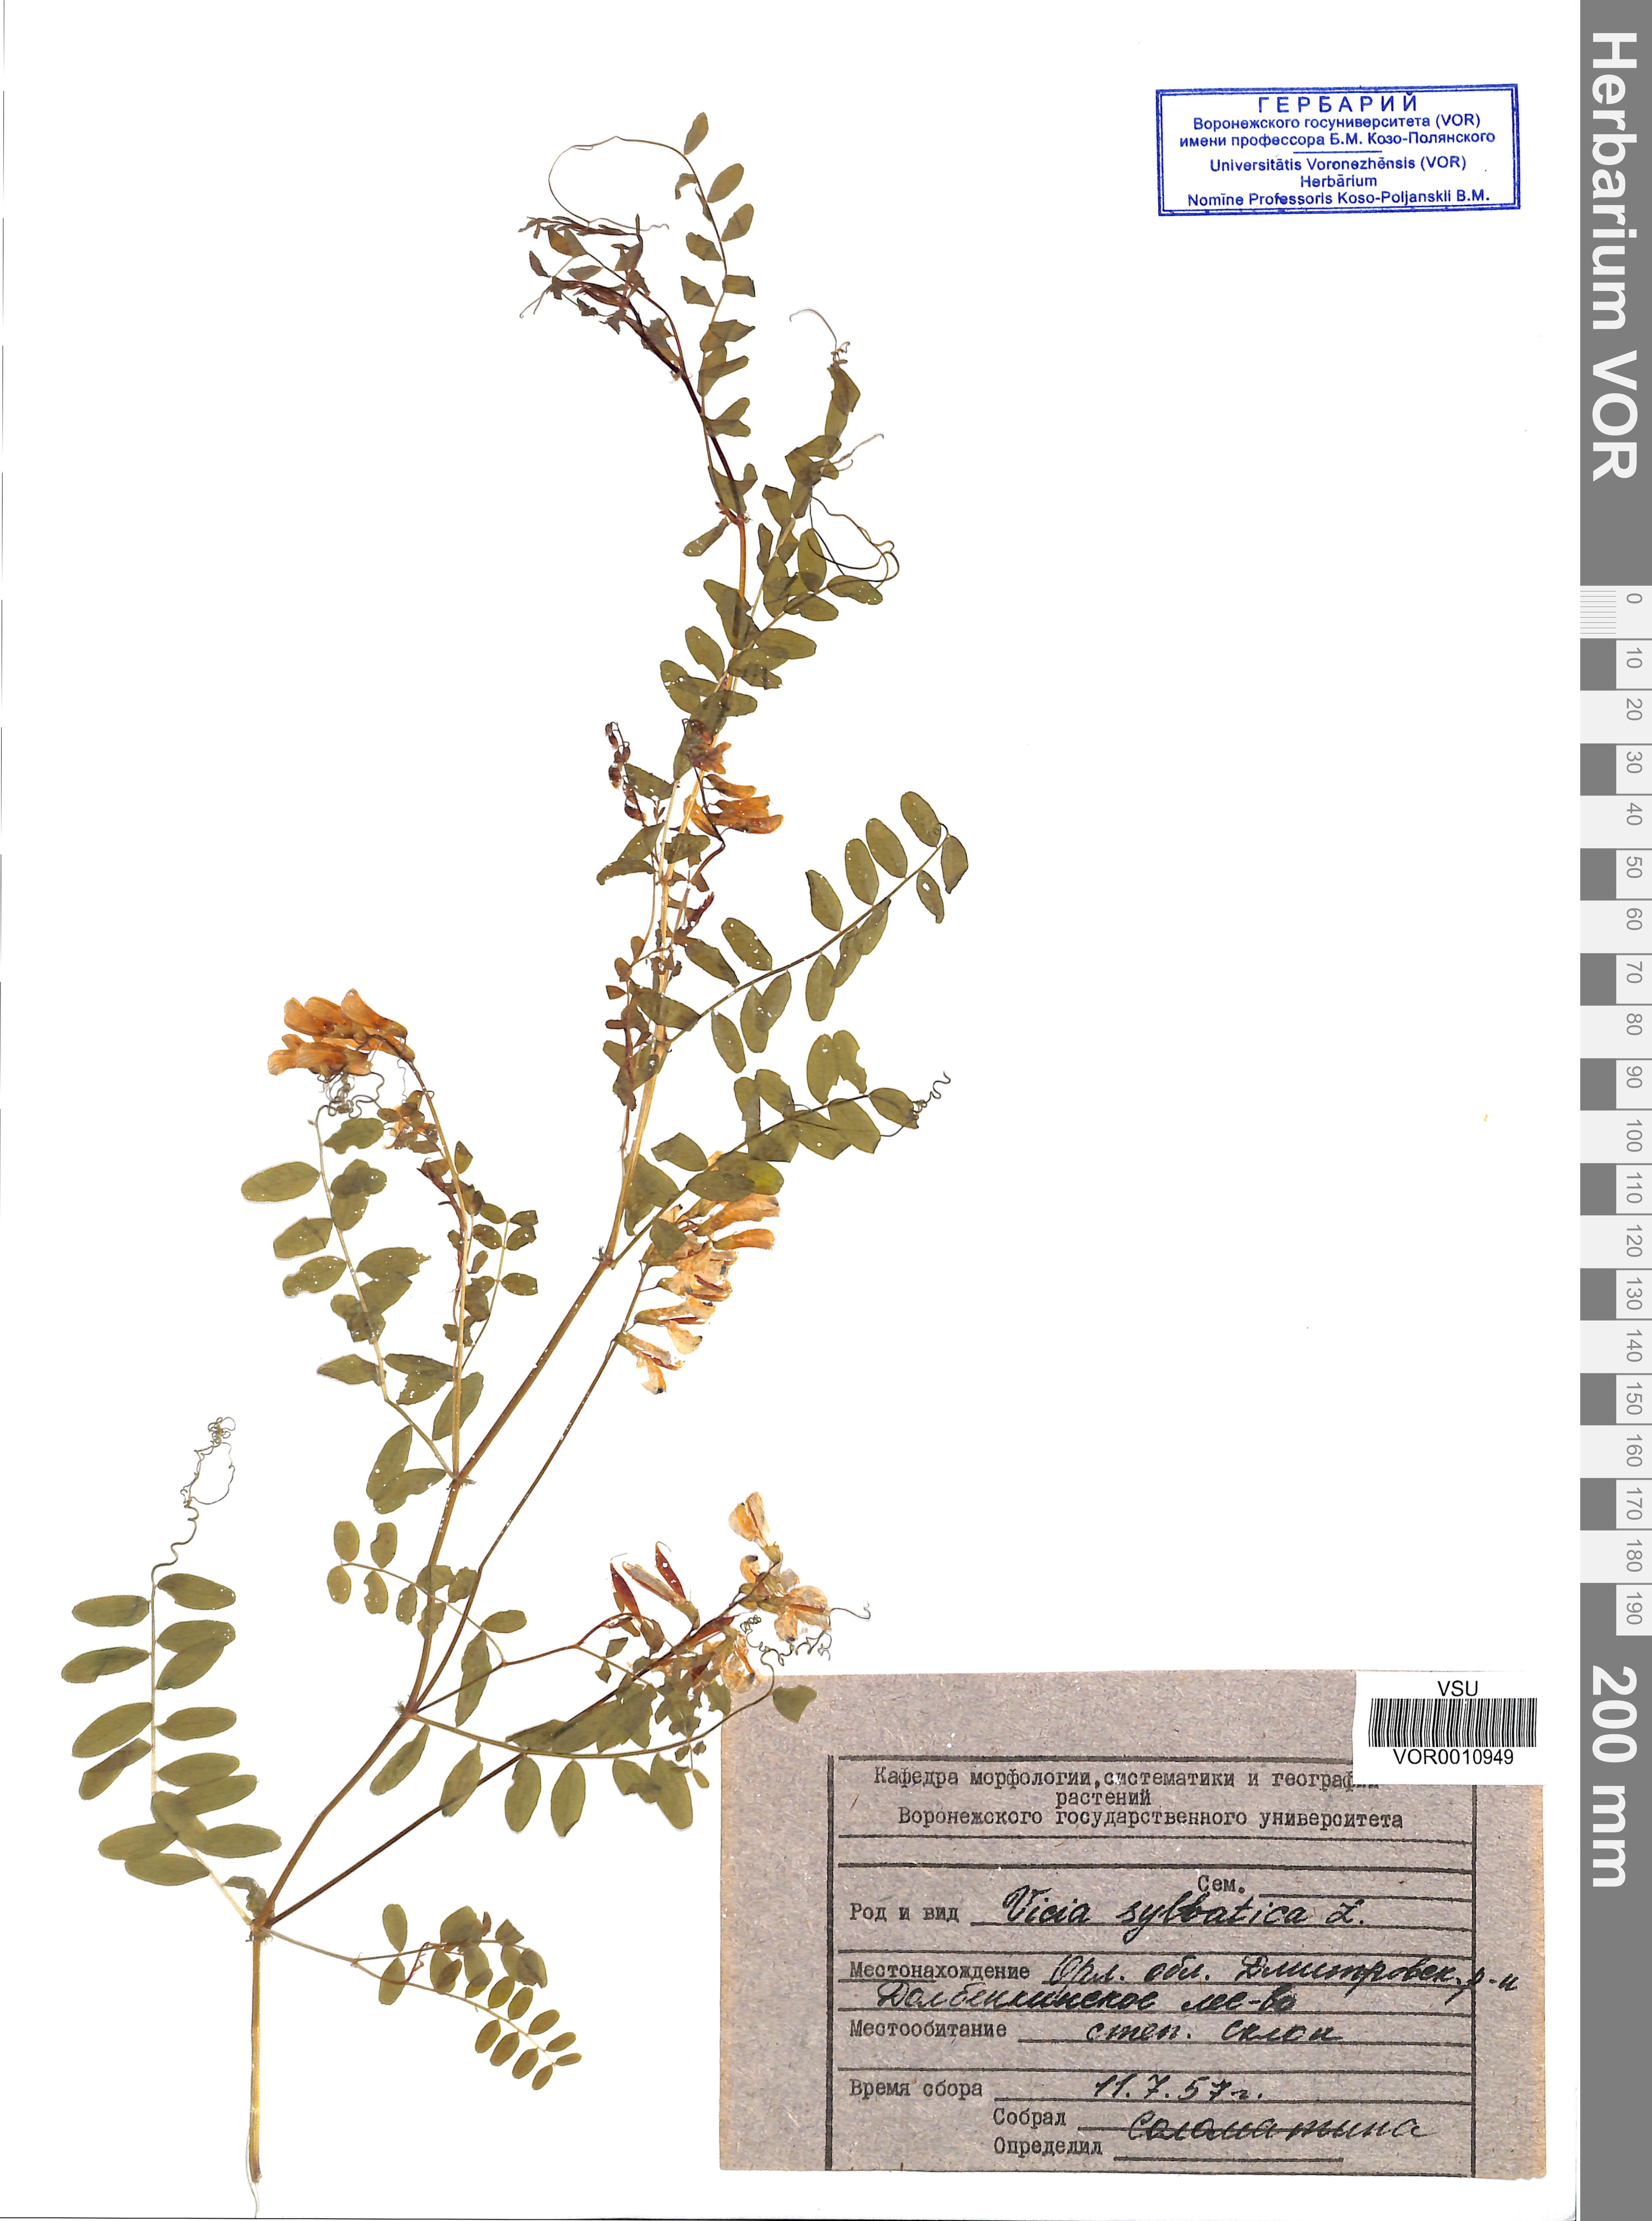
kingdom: Plantae
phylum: Tracheophyta
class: Magnoliopsida
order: Fabales
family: Fabaceae
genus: Vicia
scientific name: Vicia sylvatica
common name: Wood vetch
